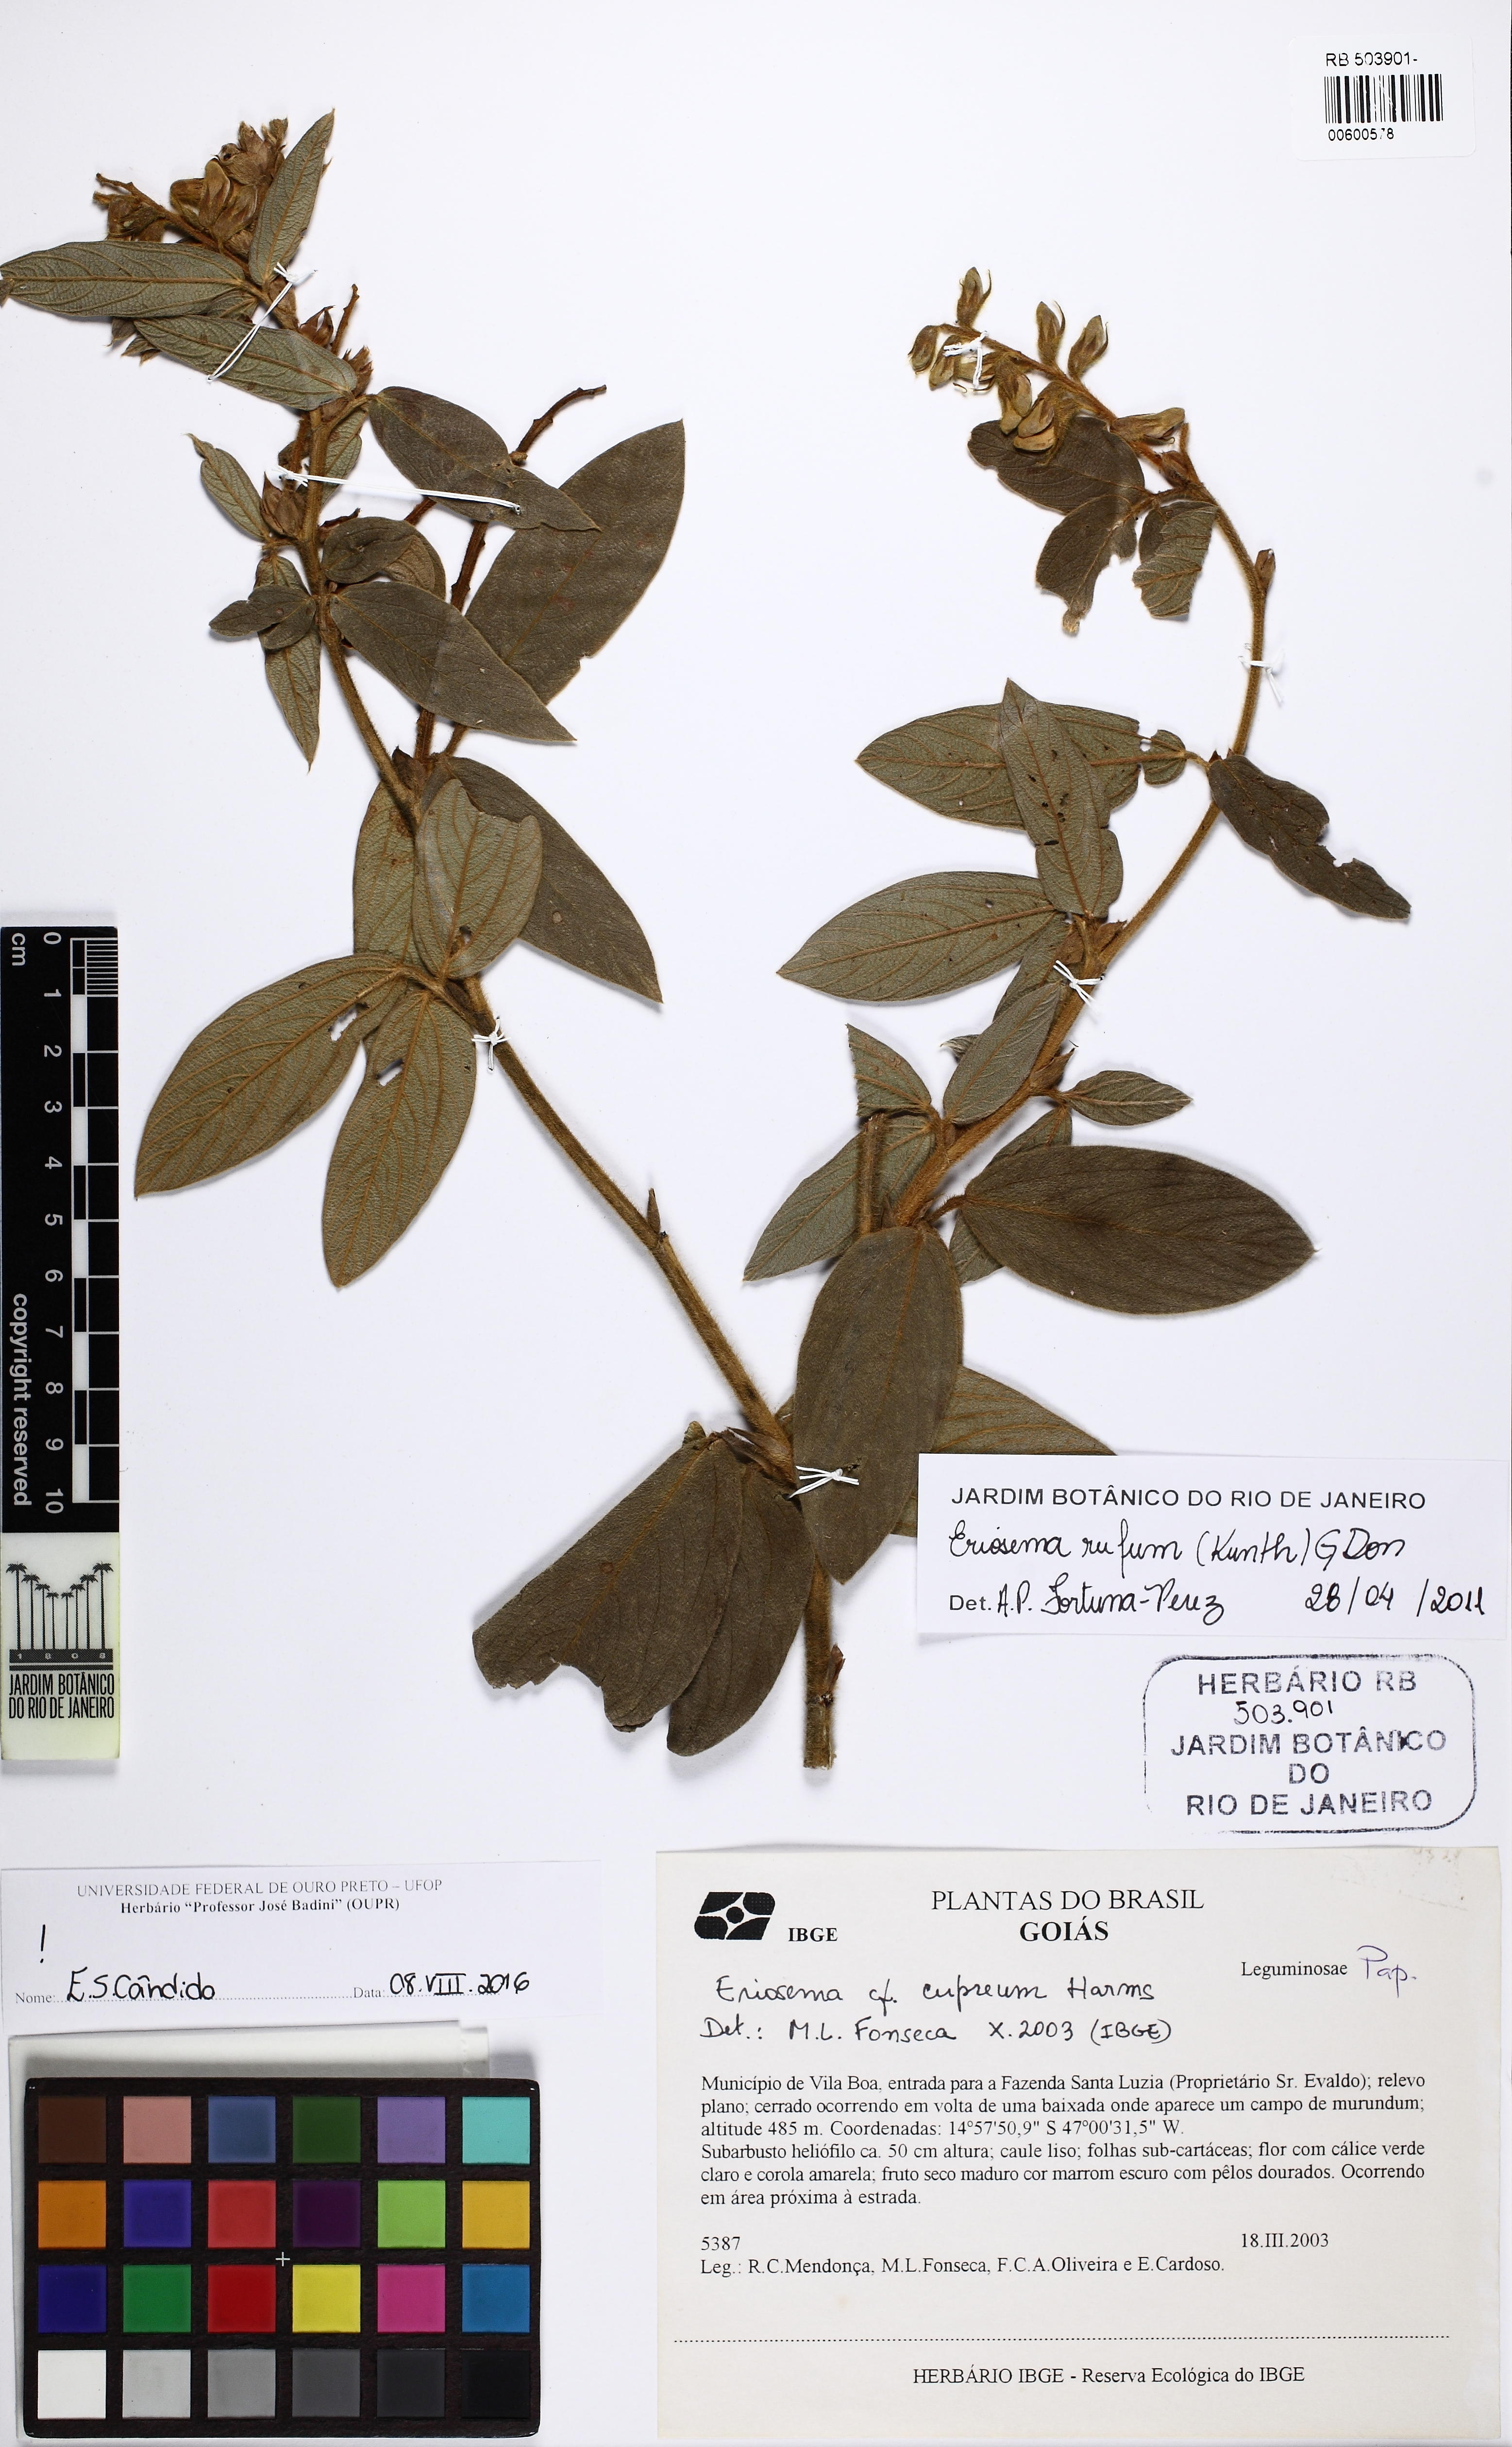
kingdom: Plantae
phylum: Tracheophyta
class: Magnoliopsida
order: Fabales
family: Fabaceae
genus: Eriosema
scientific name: Eriosema rufum
